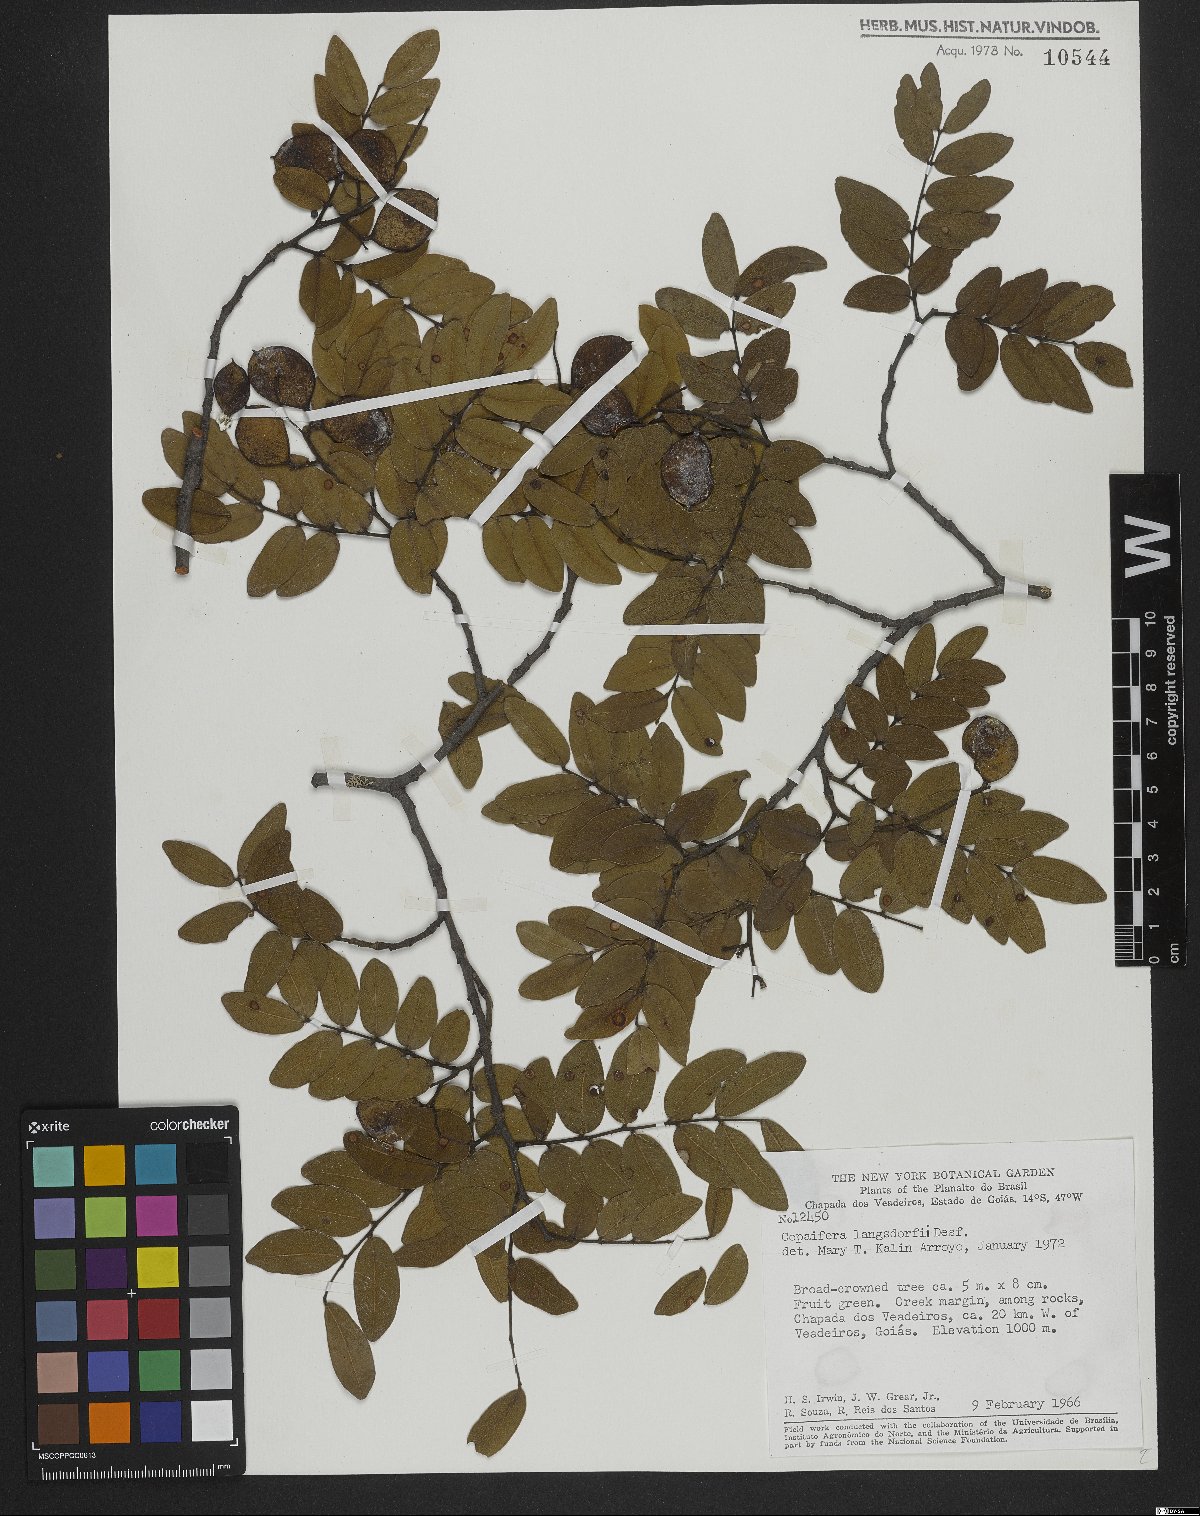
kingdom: Plantae
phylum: Tracheophyta
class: Magnoliopsida
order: Fabales
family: Fabaceae
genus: Copaifera
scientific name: Copaifera langsdorffii
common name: Brazilian diesel tree
